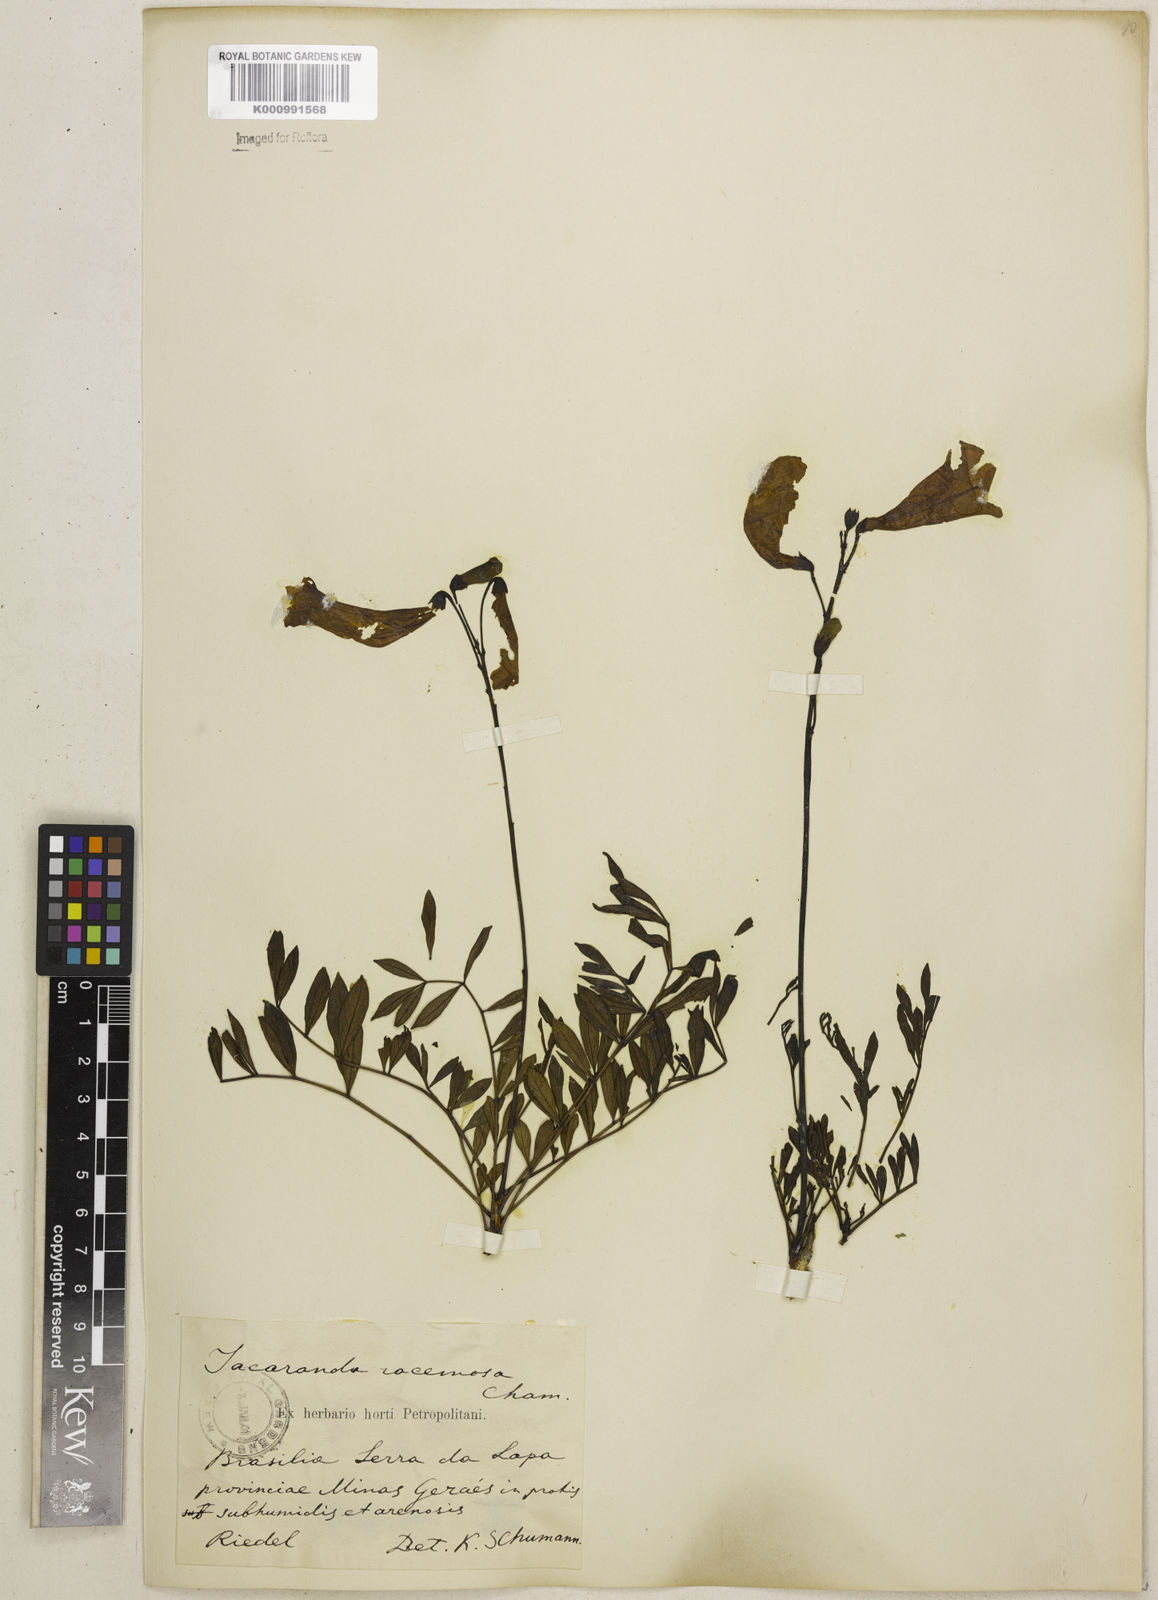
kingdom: Plantae
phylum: Tracheophyta
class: Magnoliopsida
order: Lamiales
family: Bignoniaceae
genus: Jacaranda
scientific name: Jacaranda racemosa
